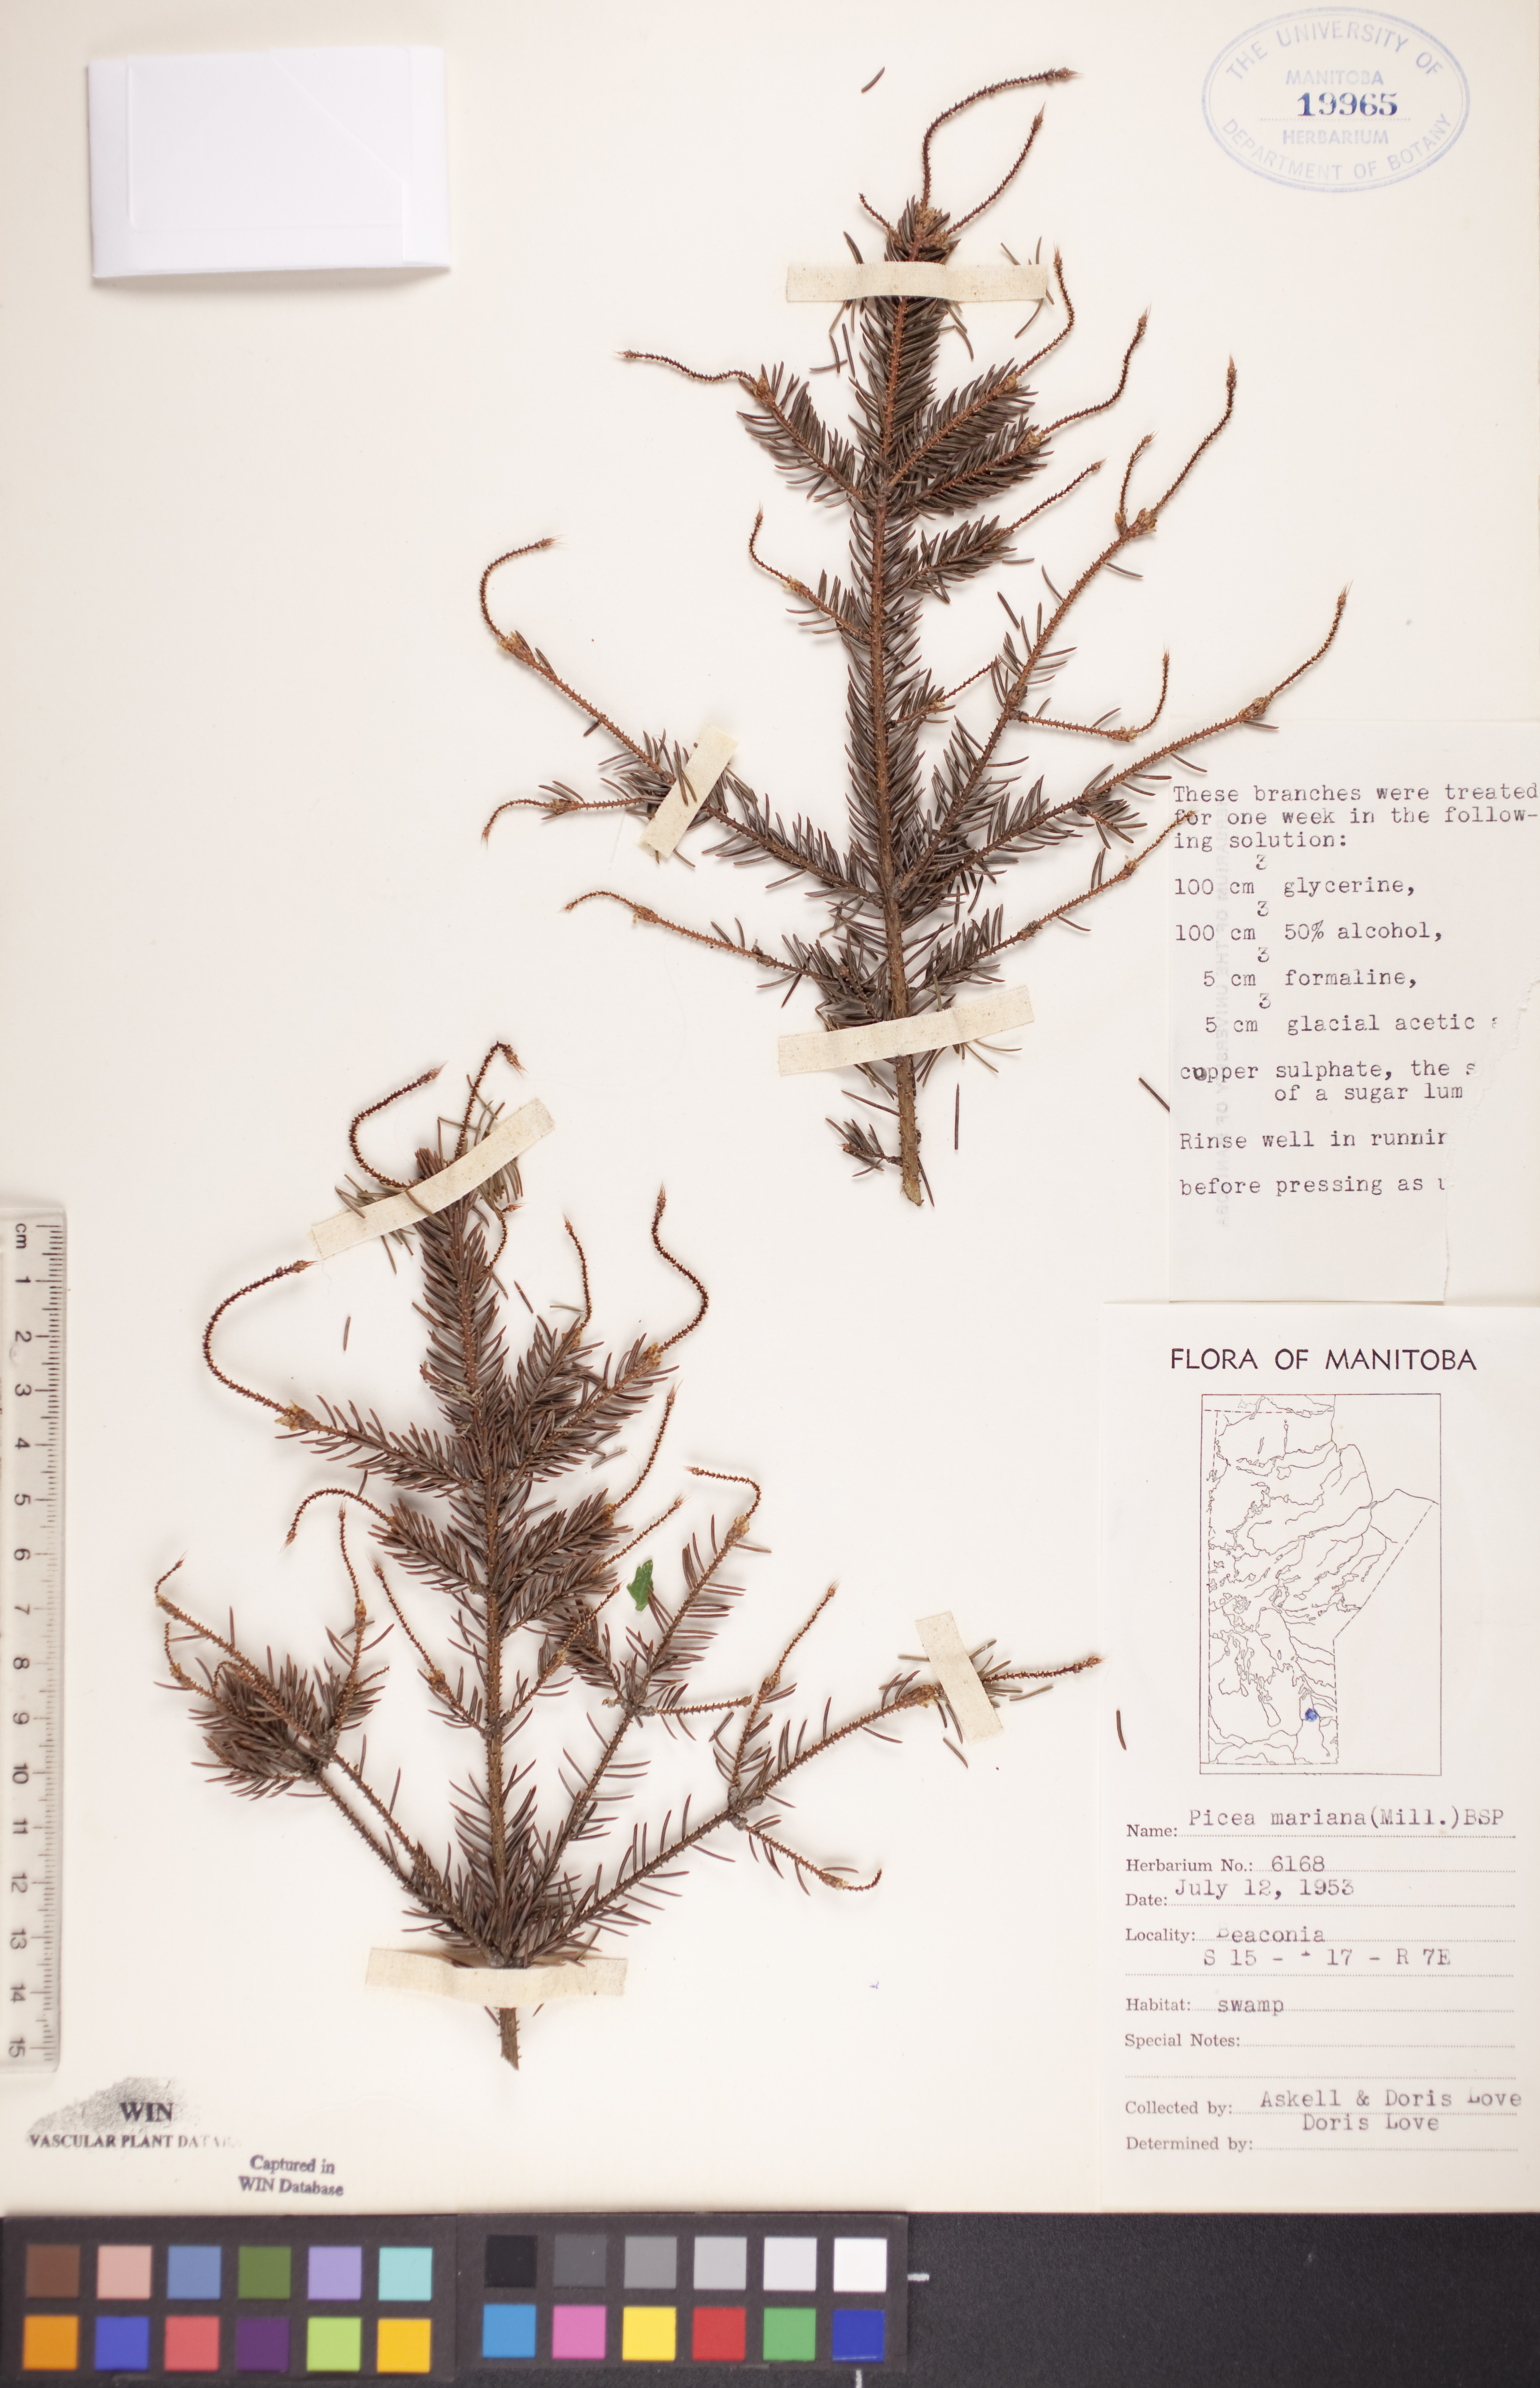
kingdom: Plantae
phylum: Tracheophyta
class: Pinopsida
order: Pinales
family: Pinaceae
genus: Picea
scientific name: Picea mariana
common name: Black spruce
